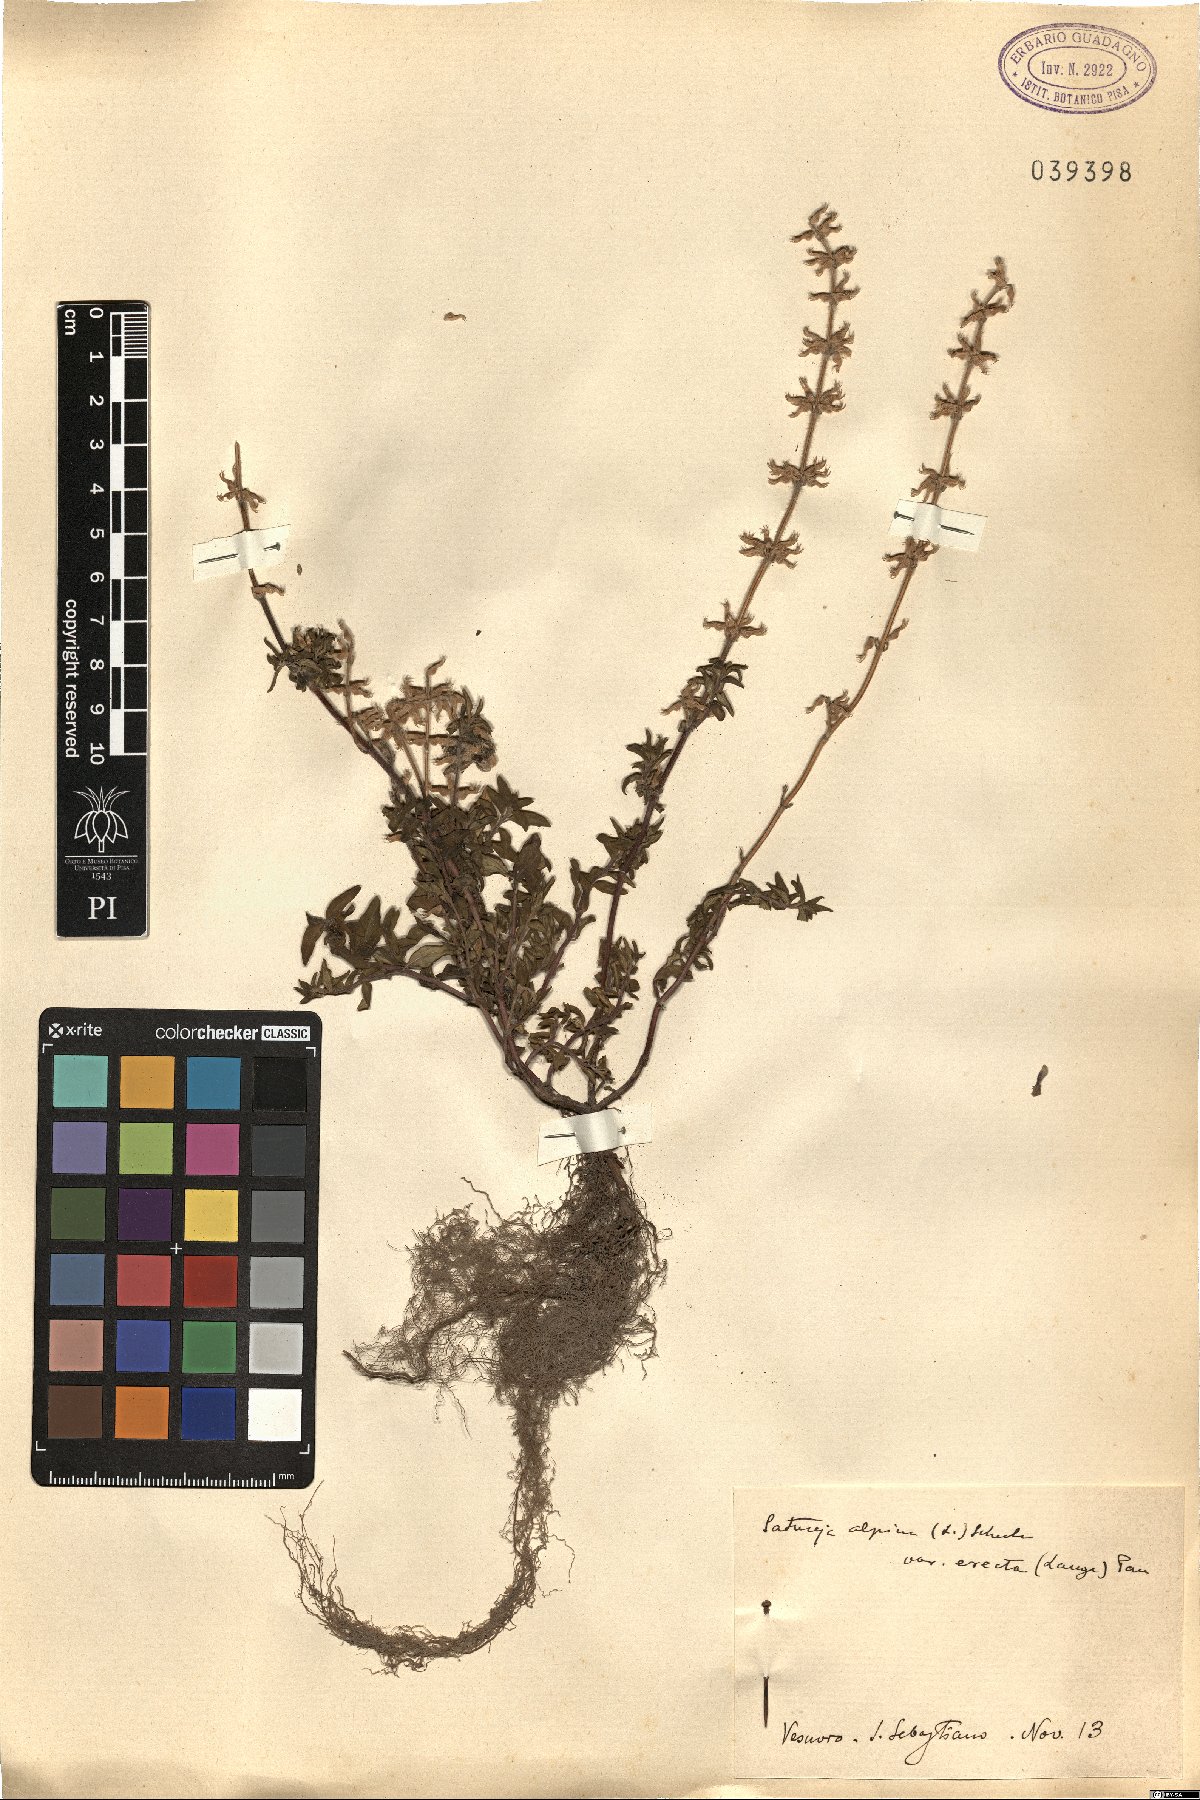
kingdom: Plantae
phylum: Tracheophyta
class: Magnoliopsida
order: Lamiales
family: Lamiaceae
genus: Clinopodium
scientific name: Clinopodium alpinum
